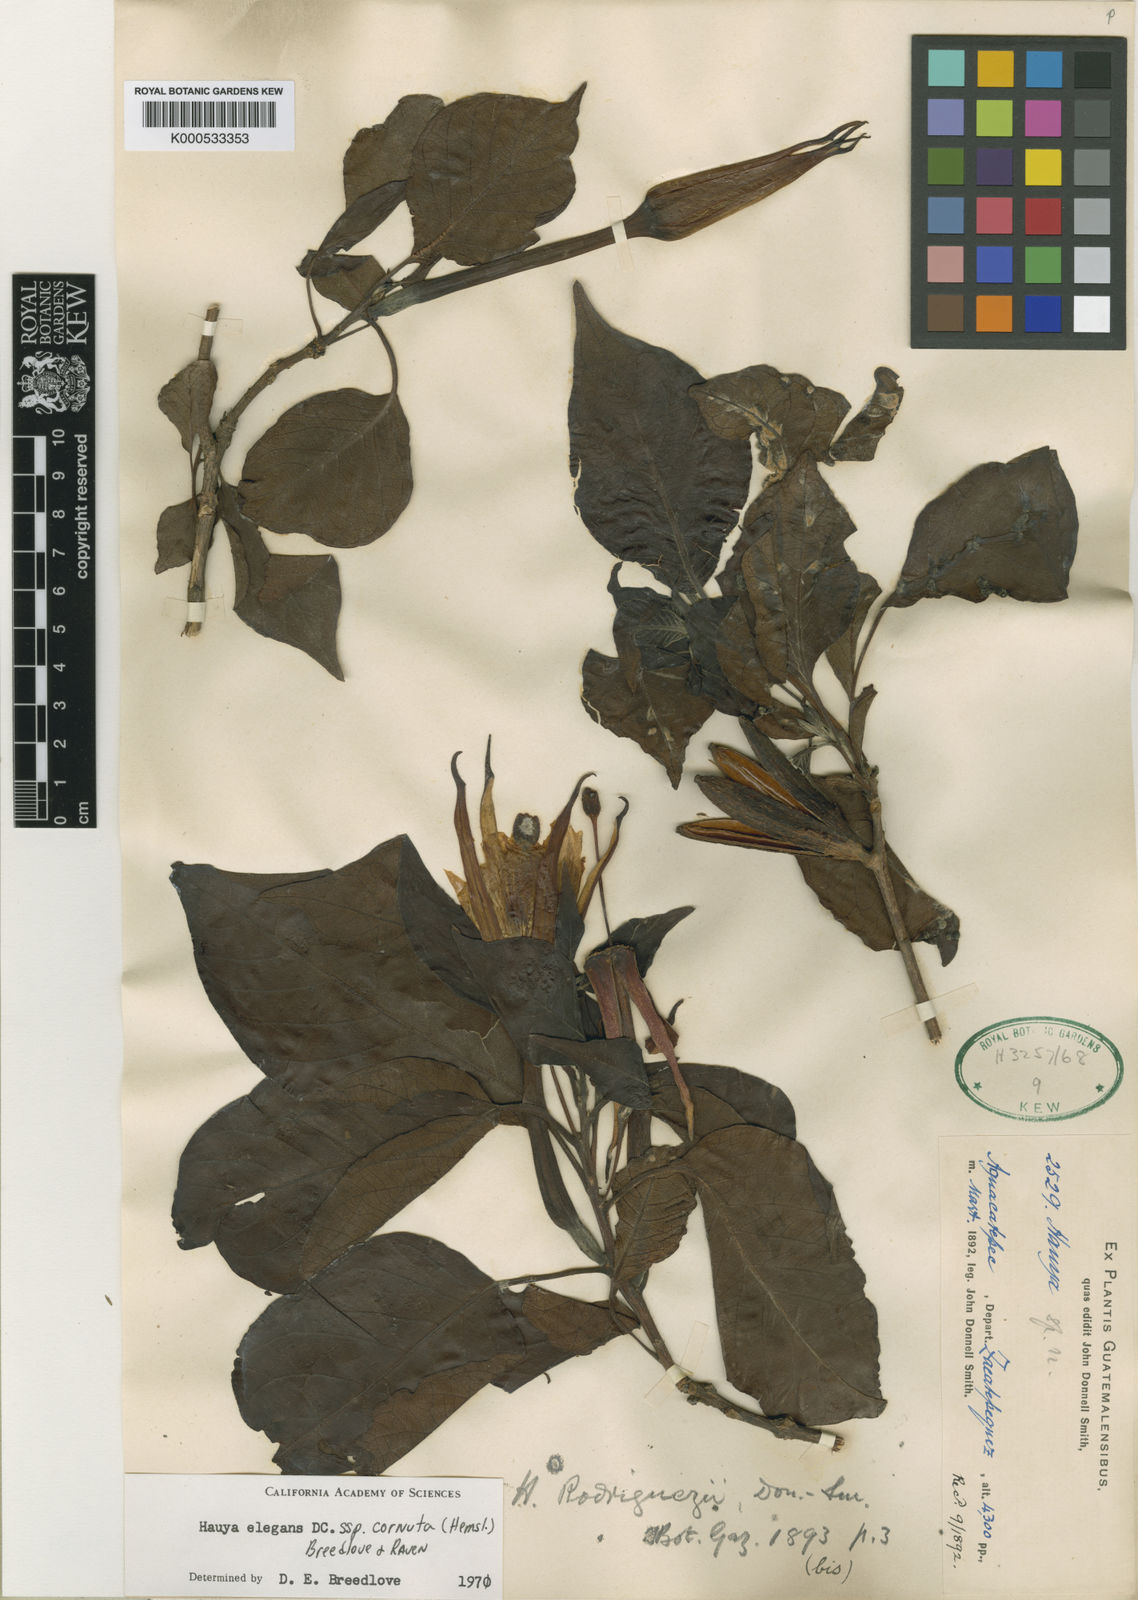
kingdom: Plantae
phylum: Tracheophyta
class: Magnoliopsida
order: Myrtales
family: Onagraceae
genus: Hauya
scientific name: Hauya elegans
